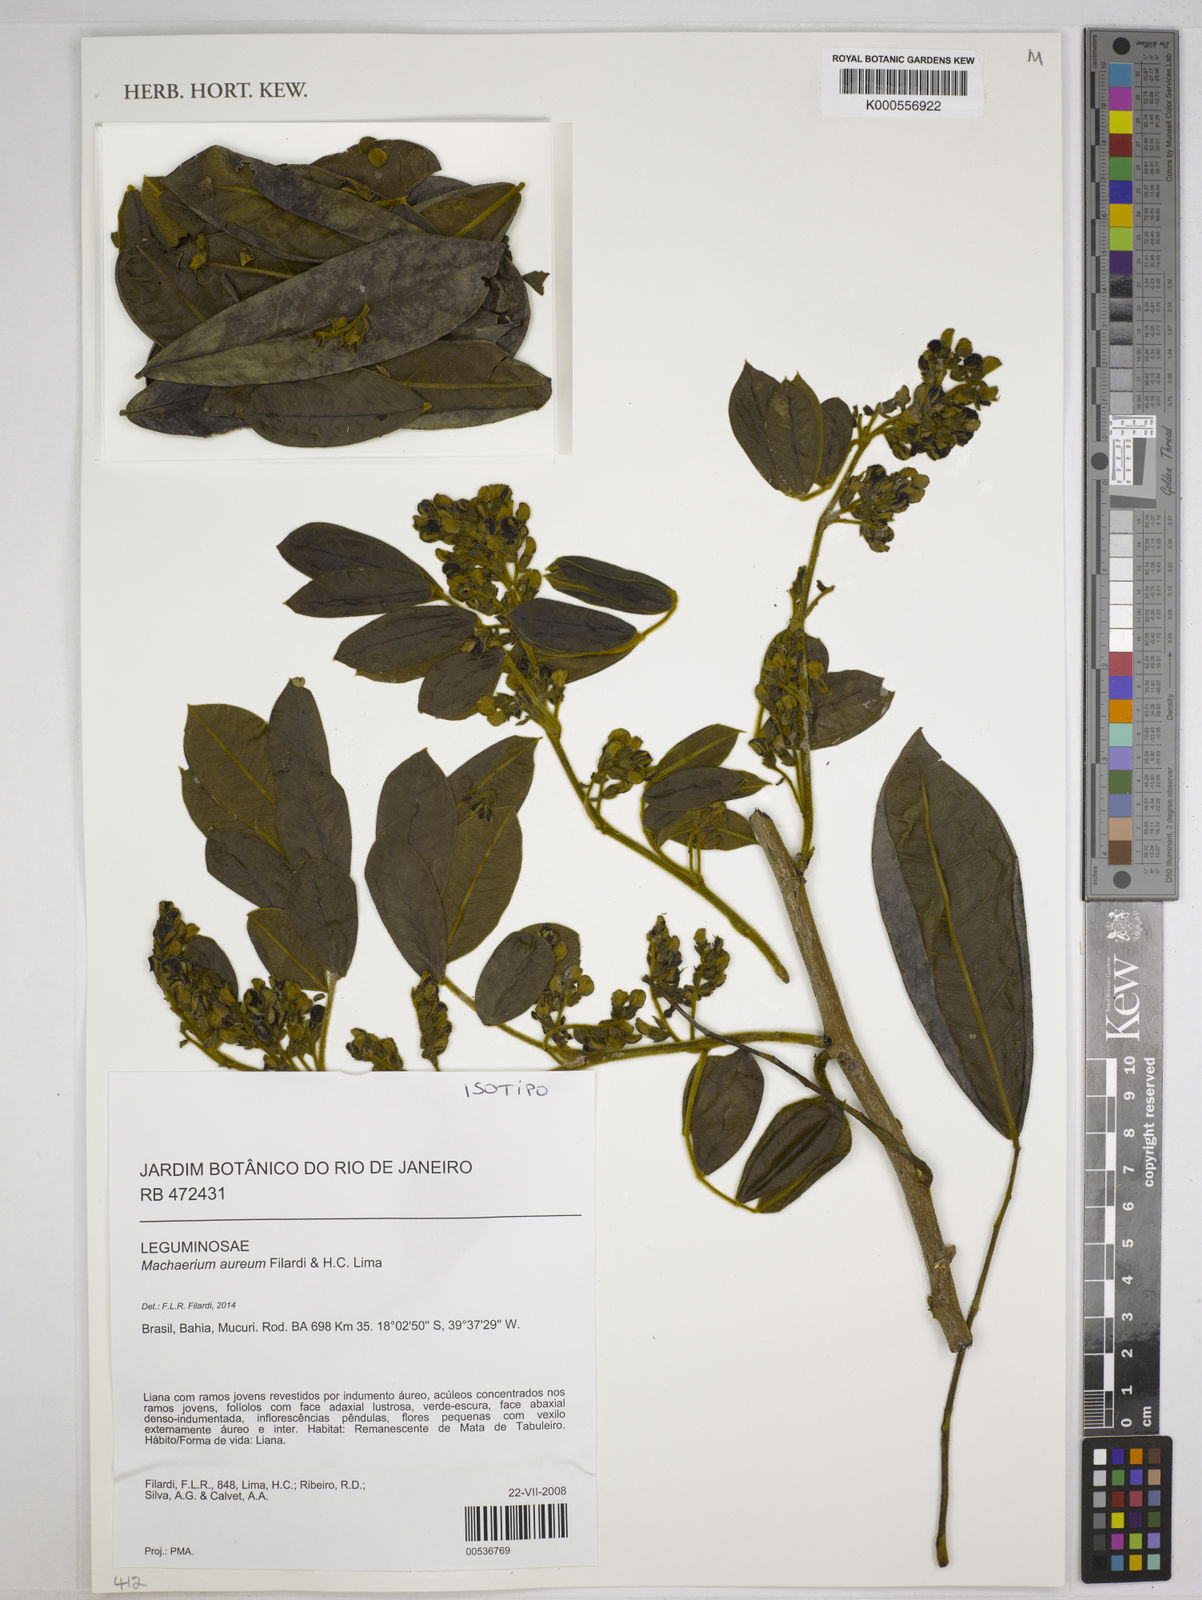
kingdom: Plantae
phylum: Tracheophyta
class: Magnoliopsida
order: Fabales
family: Fabaceae
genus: Machaerium
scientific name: Machaerium aureiflorum
